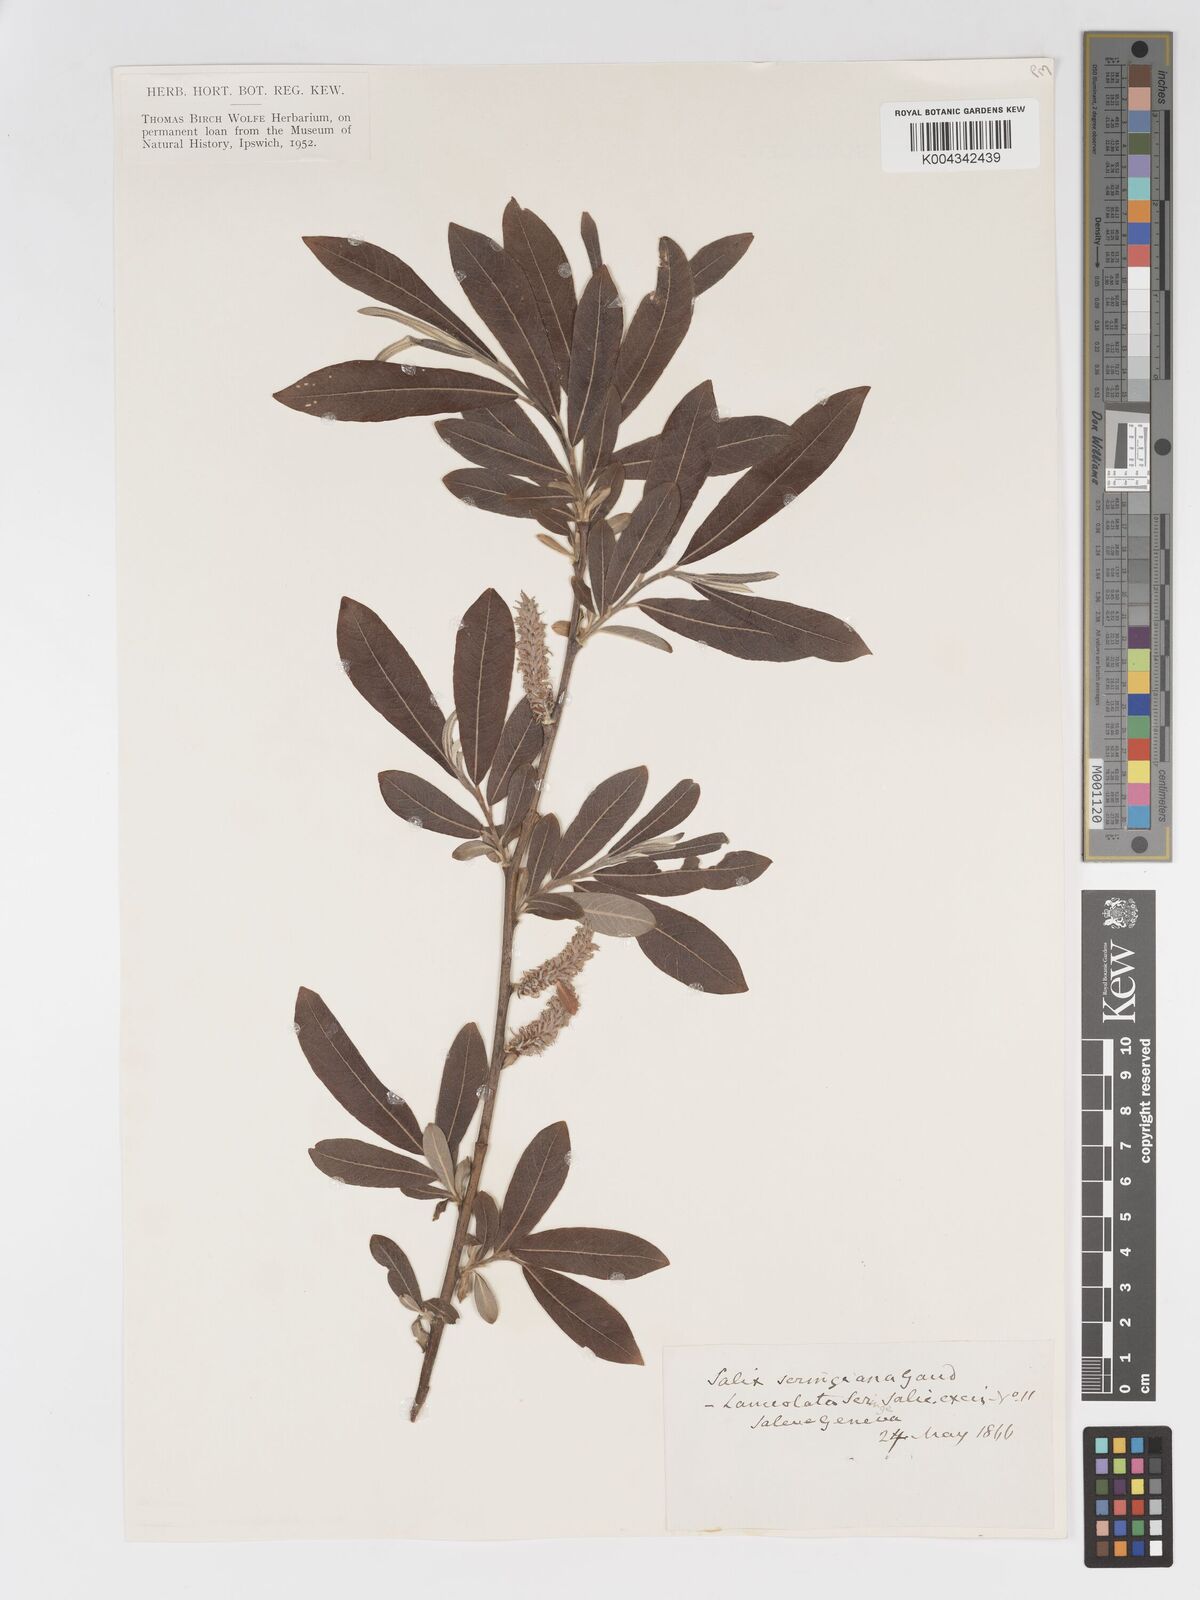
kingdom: Plantae
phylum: Tracheophyta
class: Magnoliopsida
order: Malpighiales
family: Salicaceae
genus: Salix
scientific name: Salix
